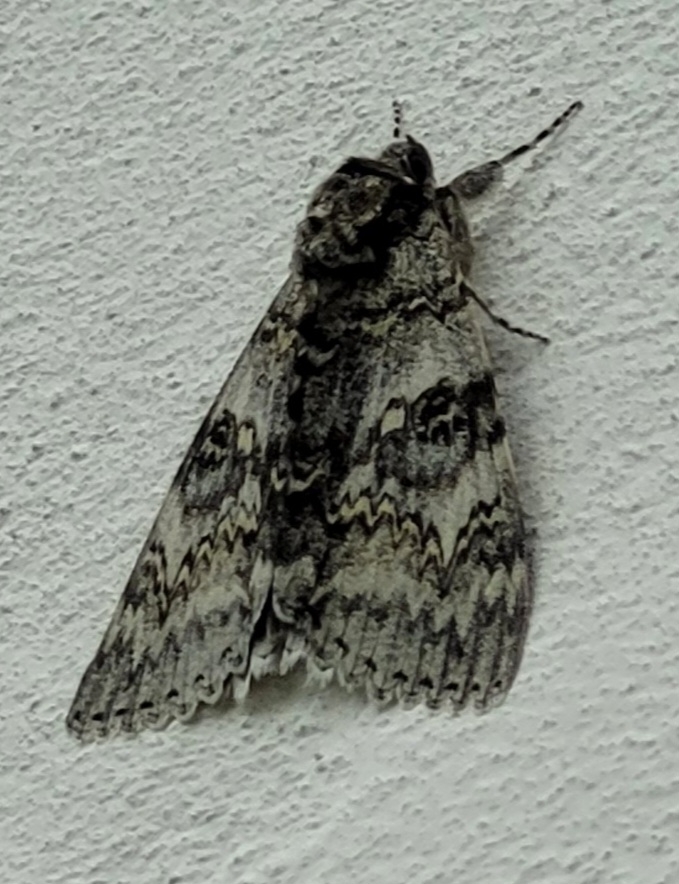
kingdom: Animalia
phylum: Arthropoda
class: Insecta
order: Lepidoptera
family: Erebidae
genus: Catocala
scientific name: Catocala fraxini
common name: Blåt ordensbånd
